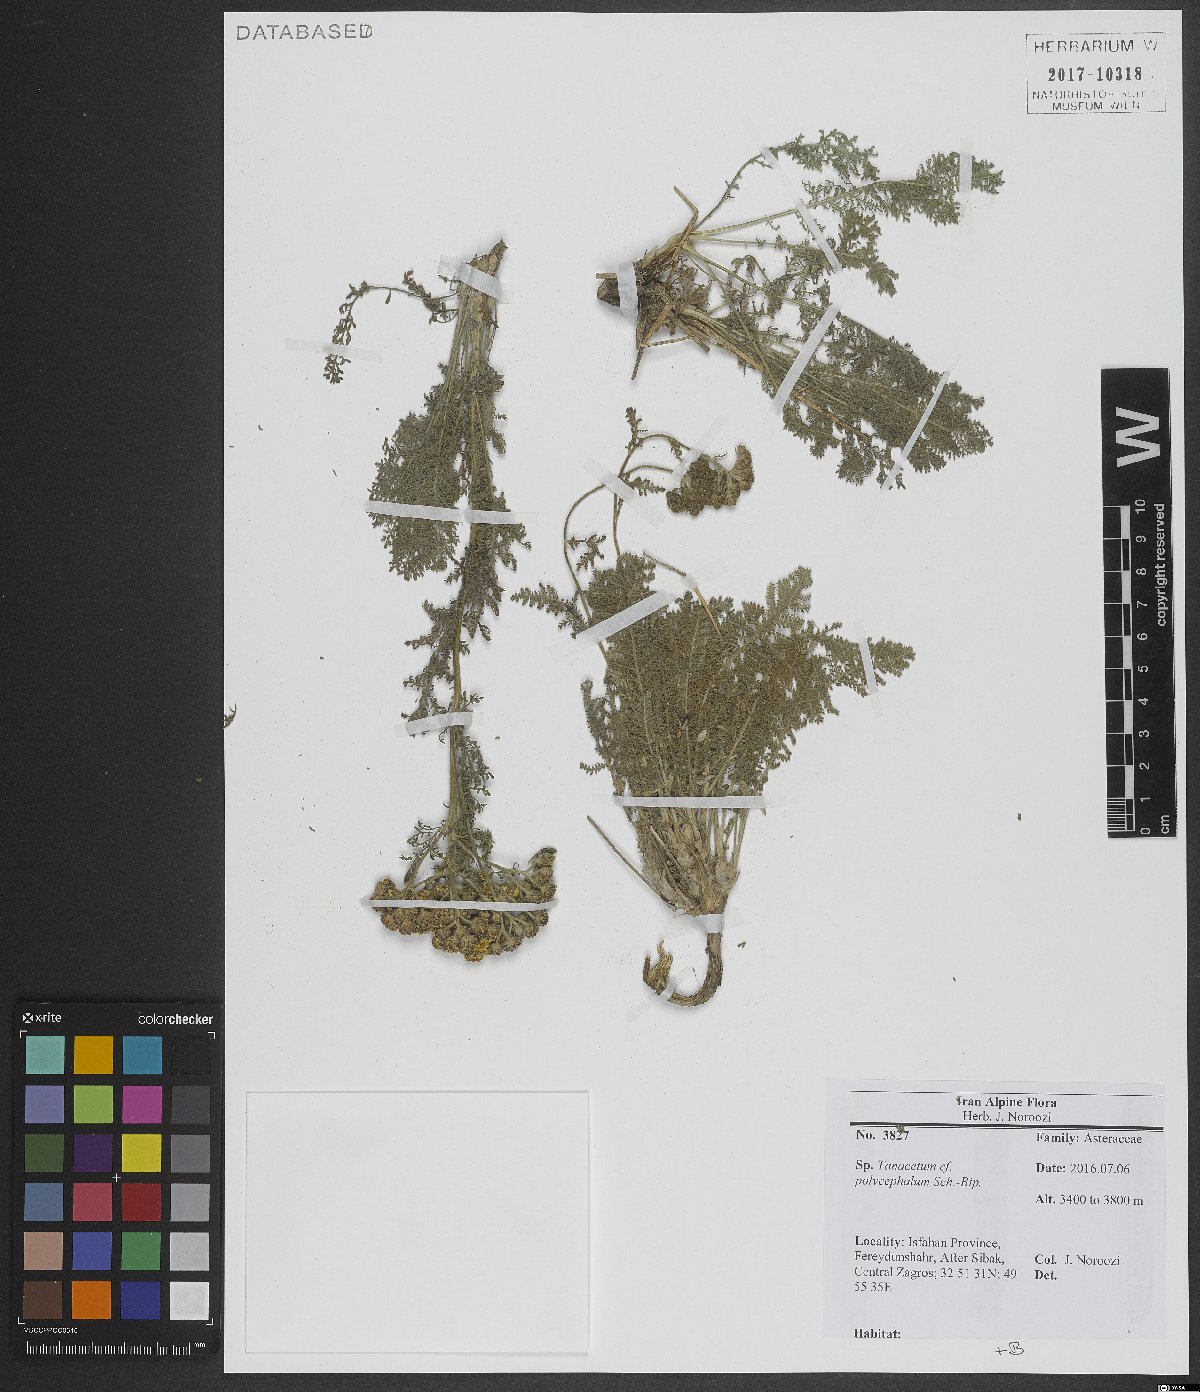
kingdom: Plantae
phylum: Tracheophyta
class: Magnoliopsida
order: Asterales
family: Asteraceae
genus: Tanacetum
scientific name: Tanacetum polycephalum
